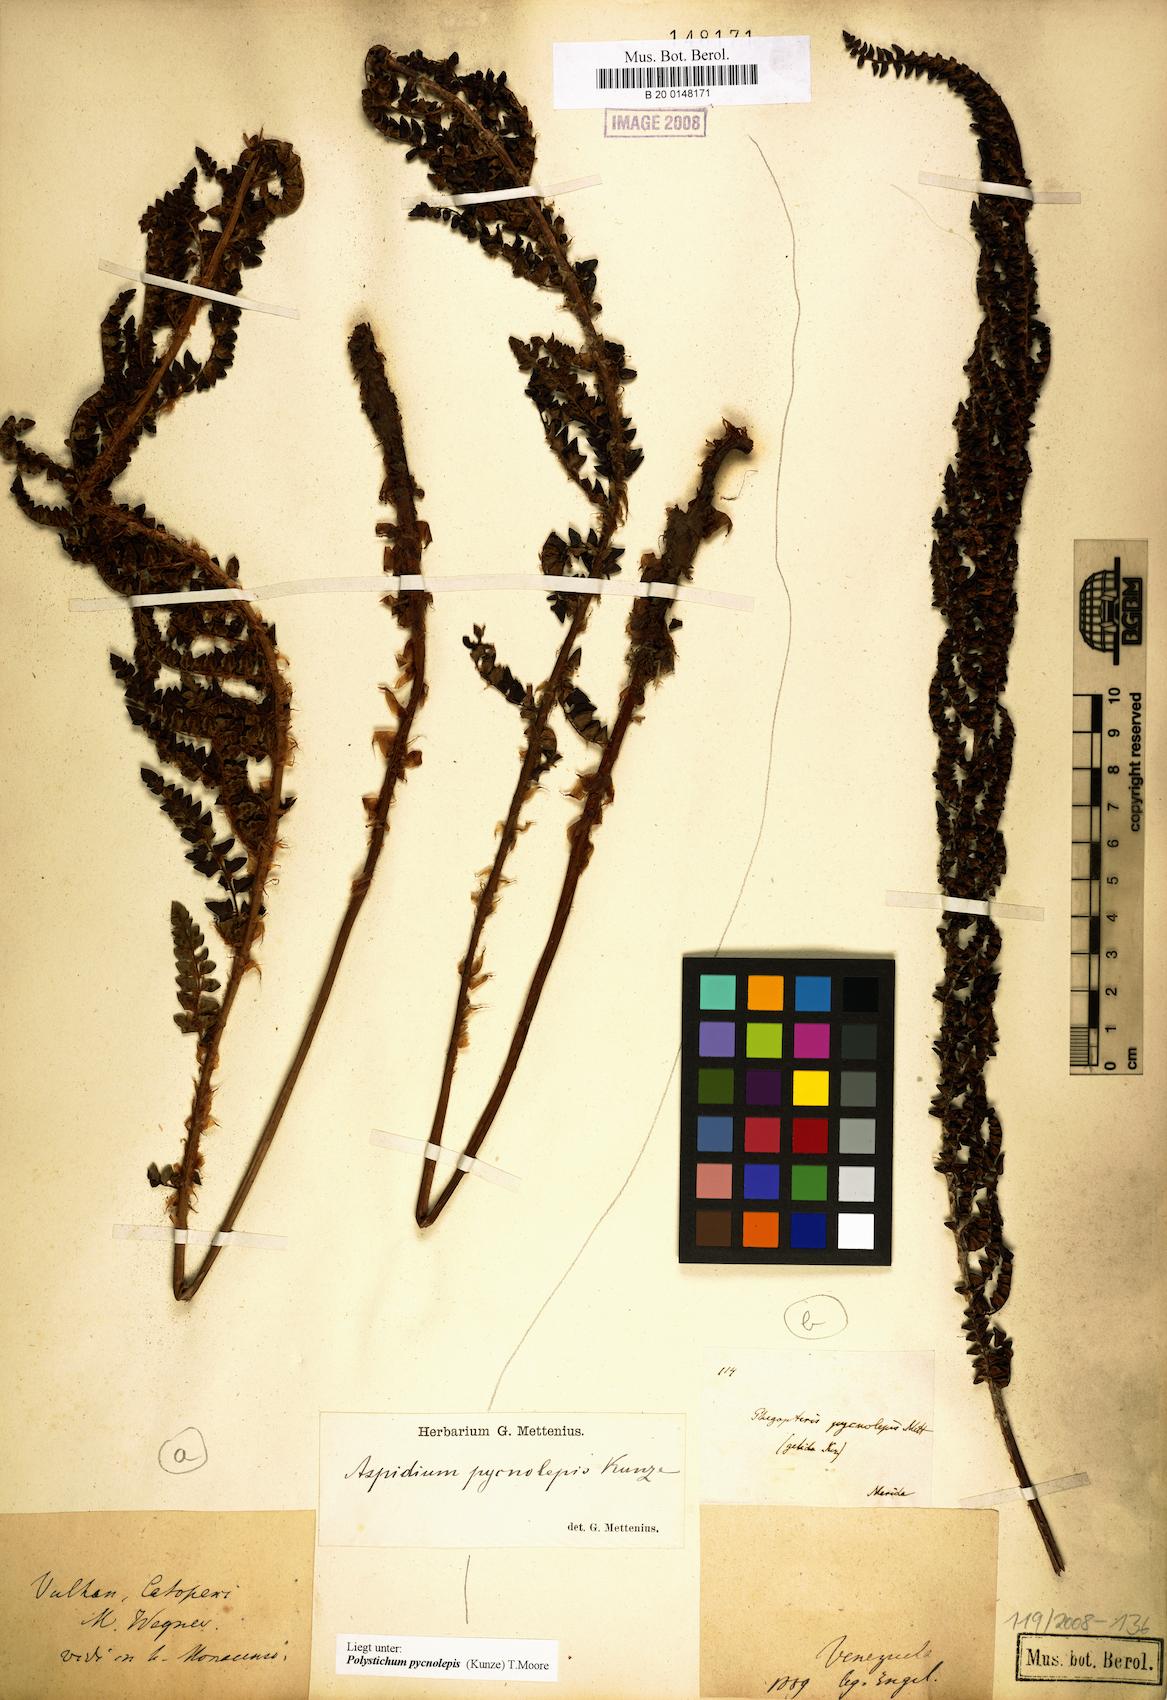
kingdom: Plantae
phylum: Tracheophyta
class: Polypodiopsida
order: Polypodiales
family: Dryopteridaceae
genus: Polystichum
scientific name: Polystichum pycnolepis
